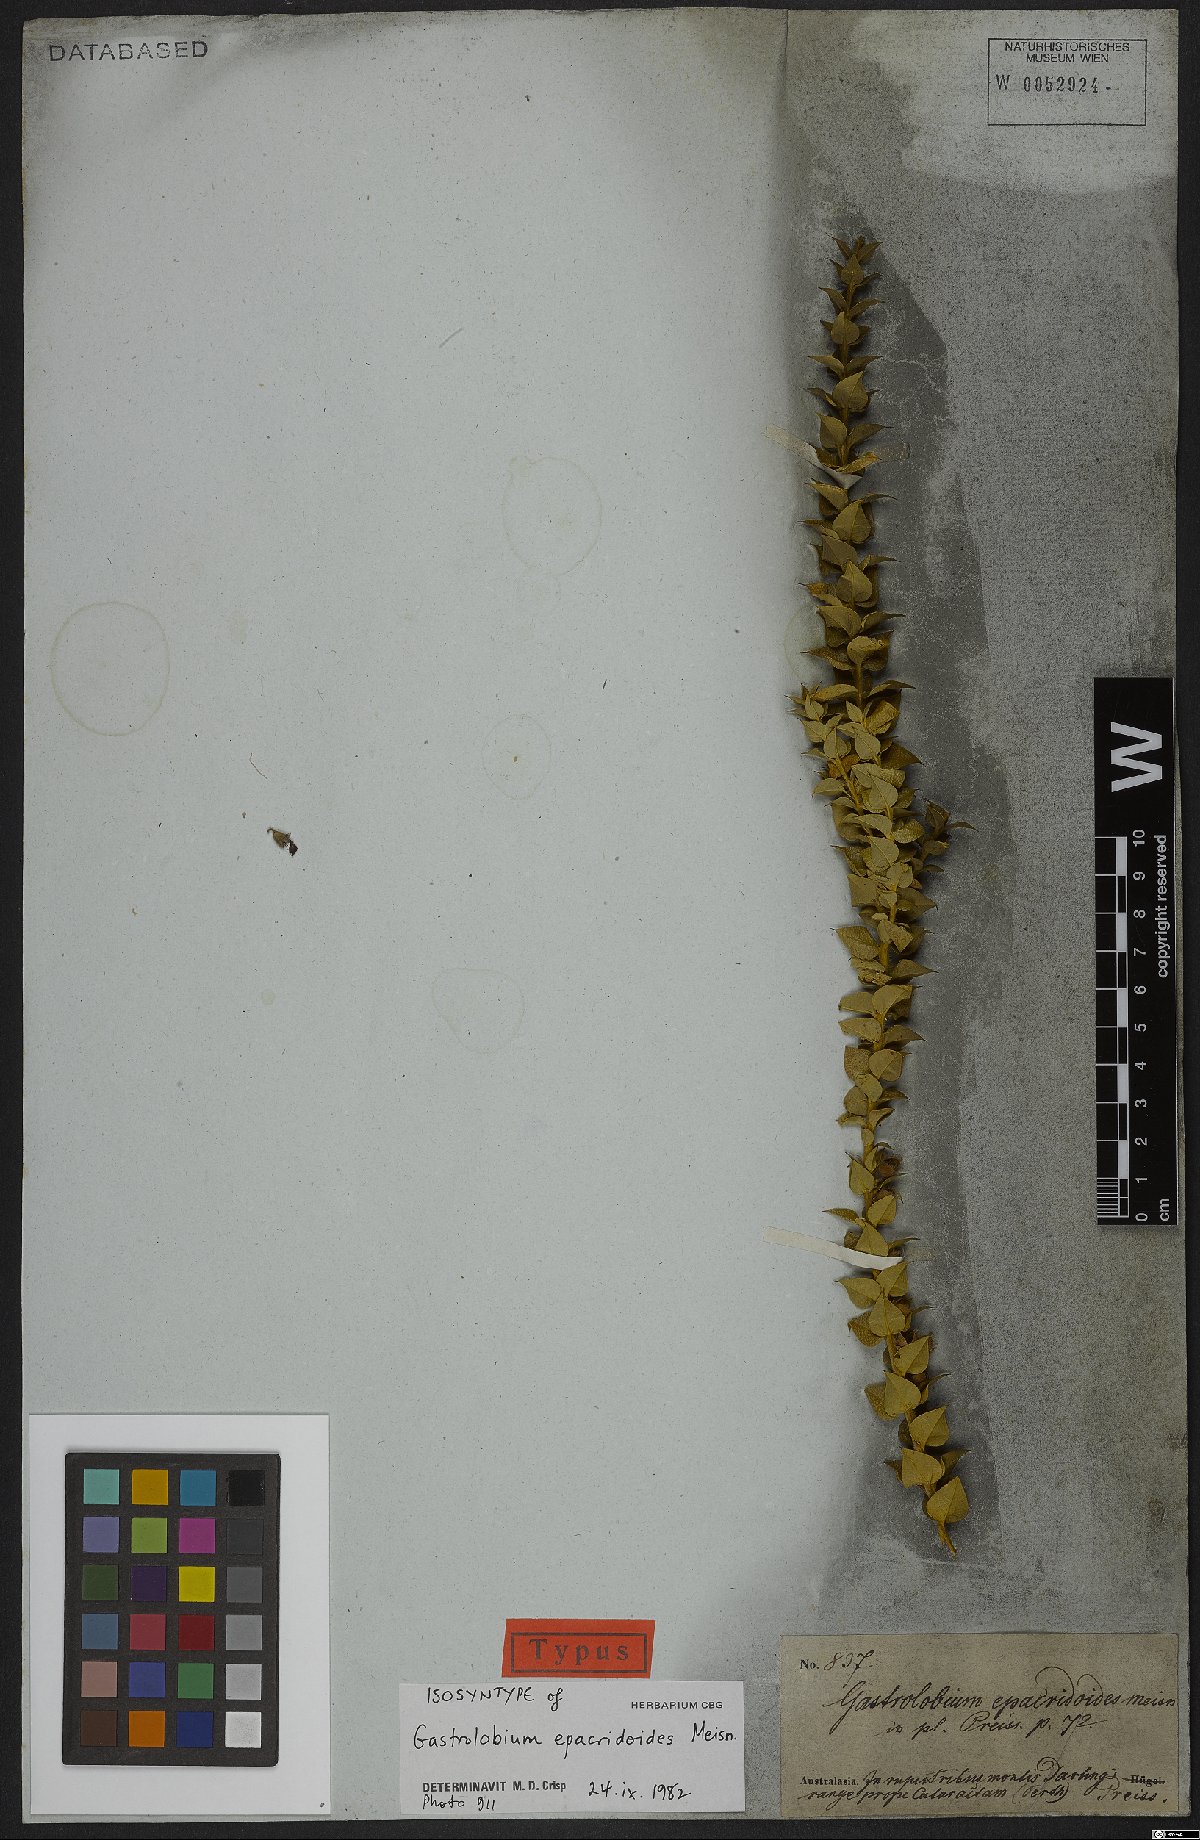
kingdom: Plantae
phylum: Tracheophyta
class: Magnoliopsida
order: Fabales
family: Fabaceae
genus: Gastrolobium
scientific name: Gastrolobium Nemcia epacridoides
